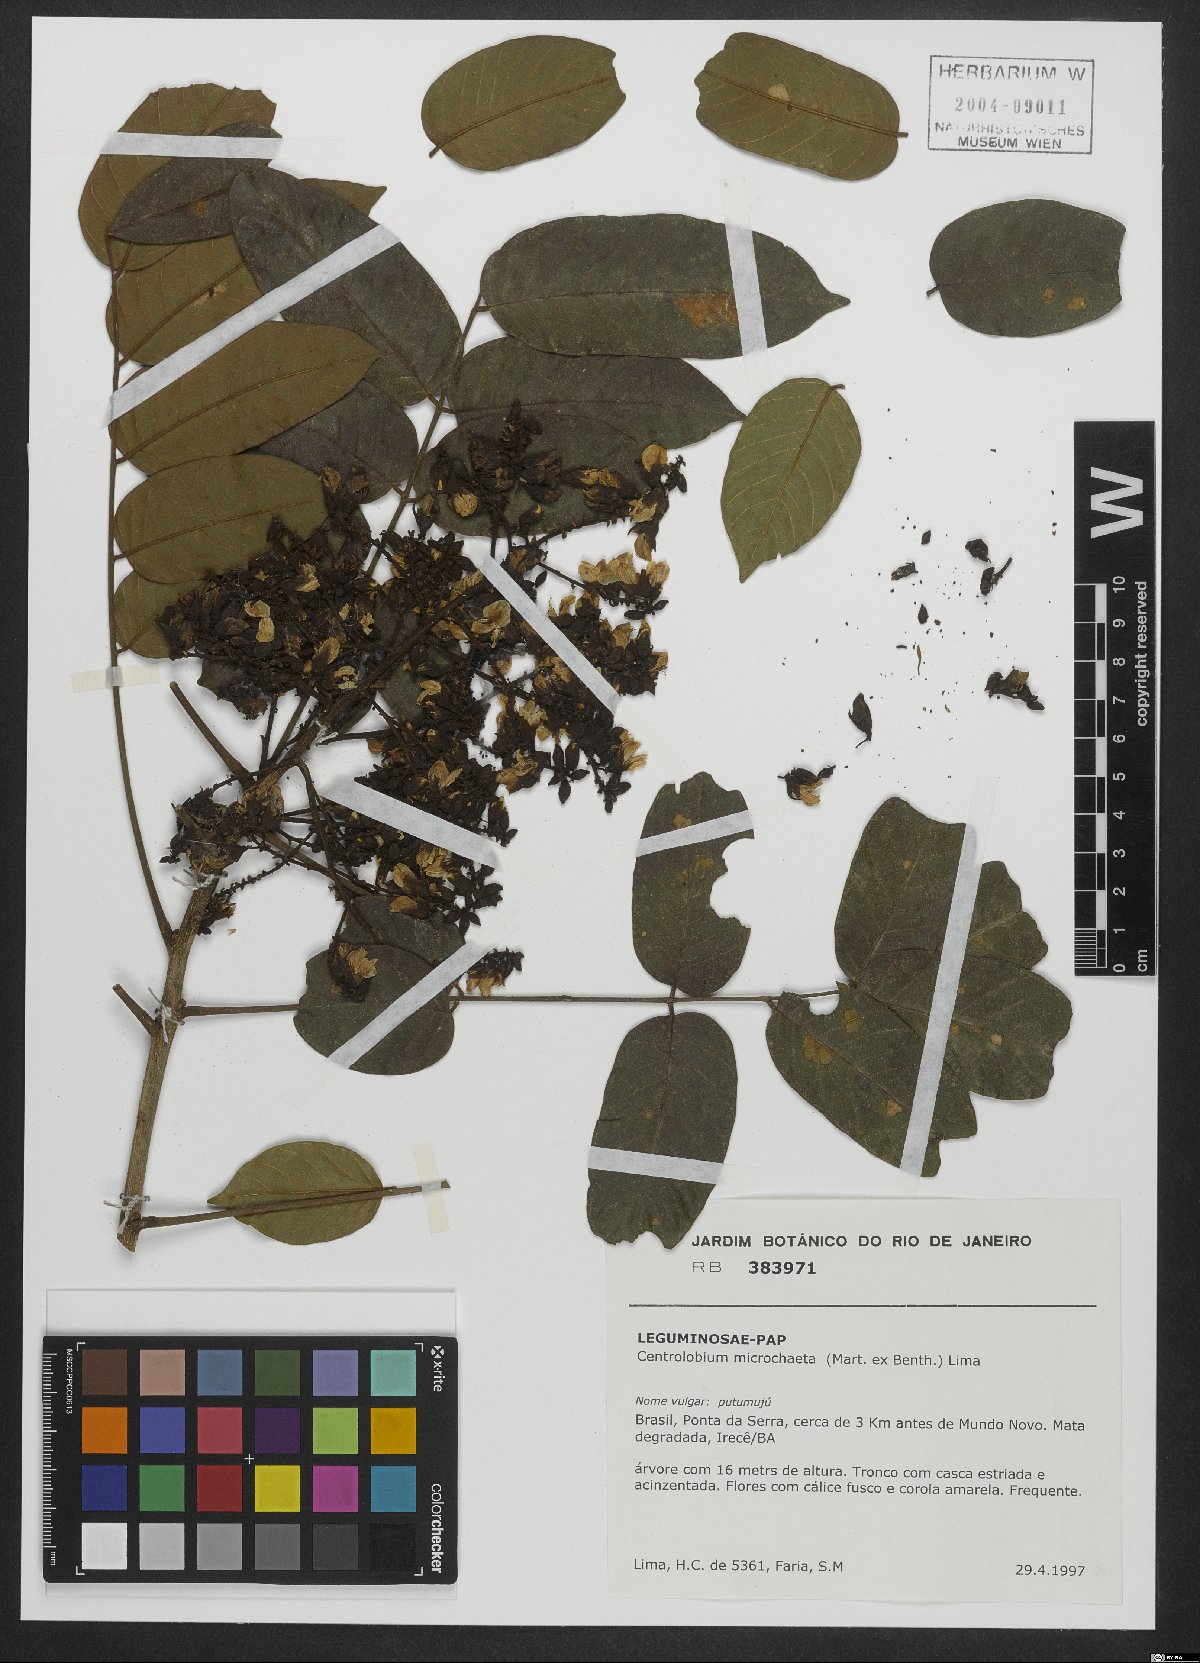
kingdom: Plantae
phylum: Tracheophyta
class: Magnoliopsida
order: Fabales
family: Fabaceae
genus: Centrolobium
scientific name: Centrolobium microchaete
